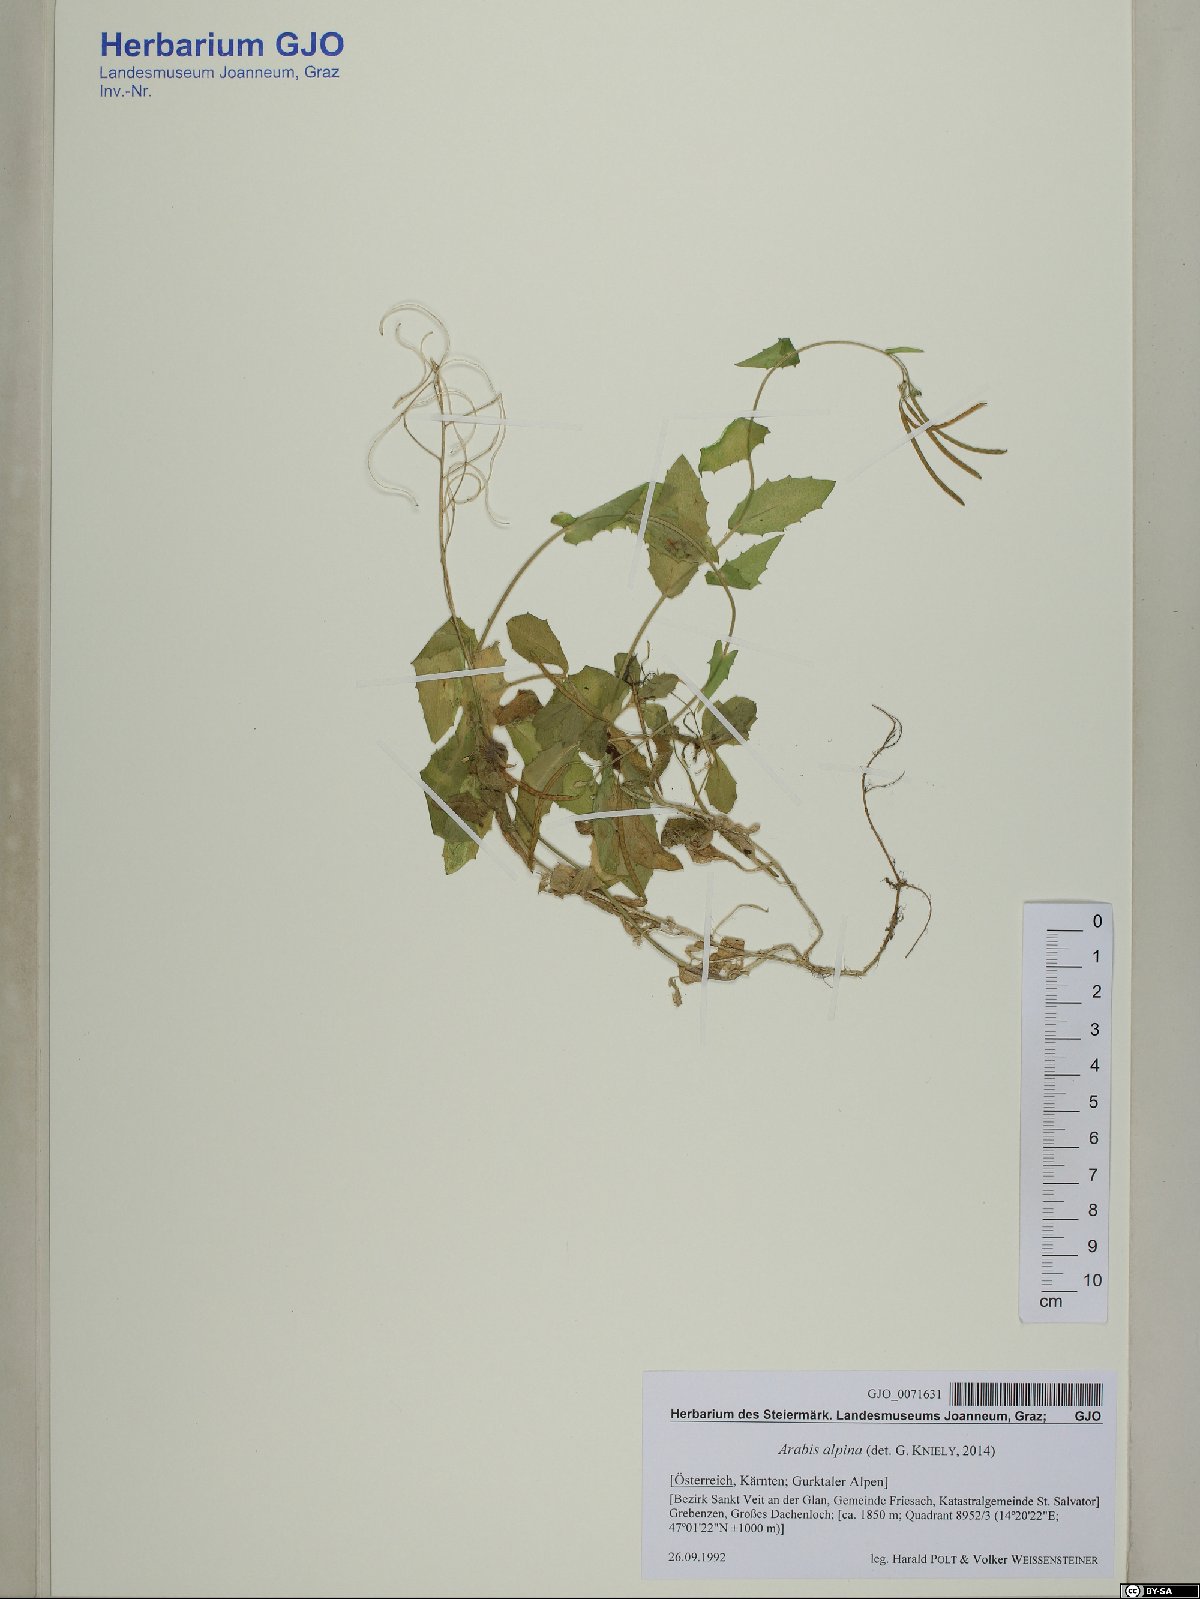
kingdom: Plantae
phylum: Tracheophyta
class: Magnoliopsida
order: Brassicales
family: Brassicaceae
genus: Arabis
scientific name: Arabis alpina
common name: Alpine rock-cress
